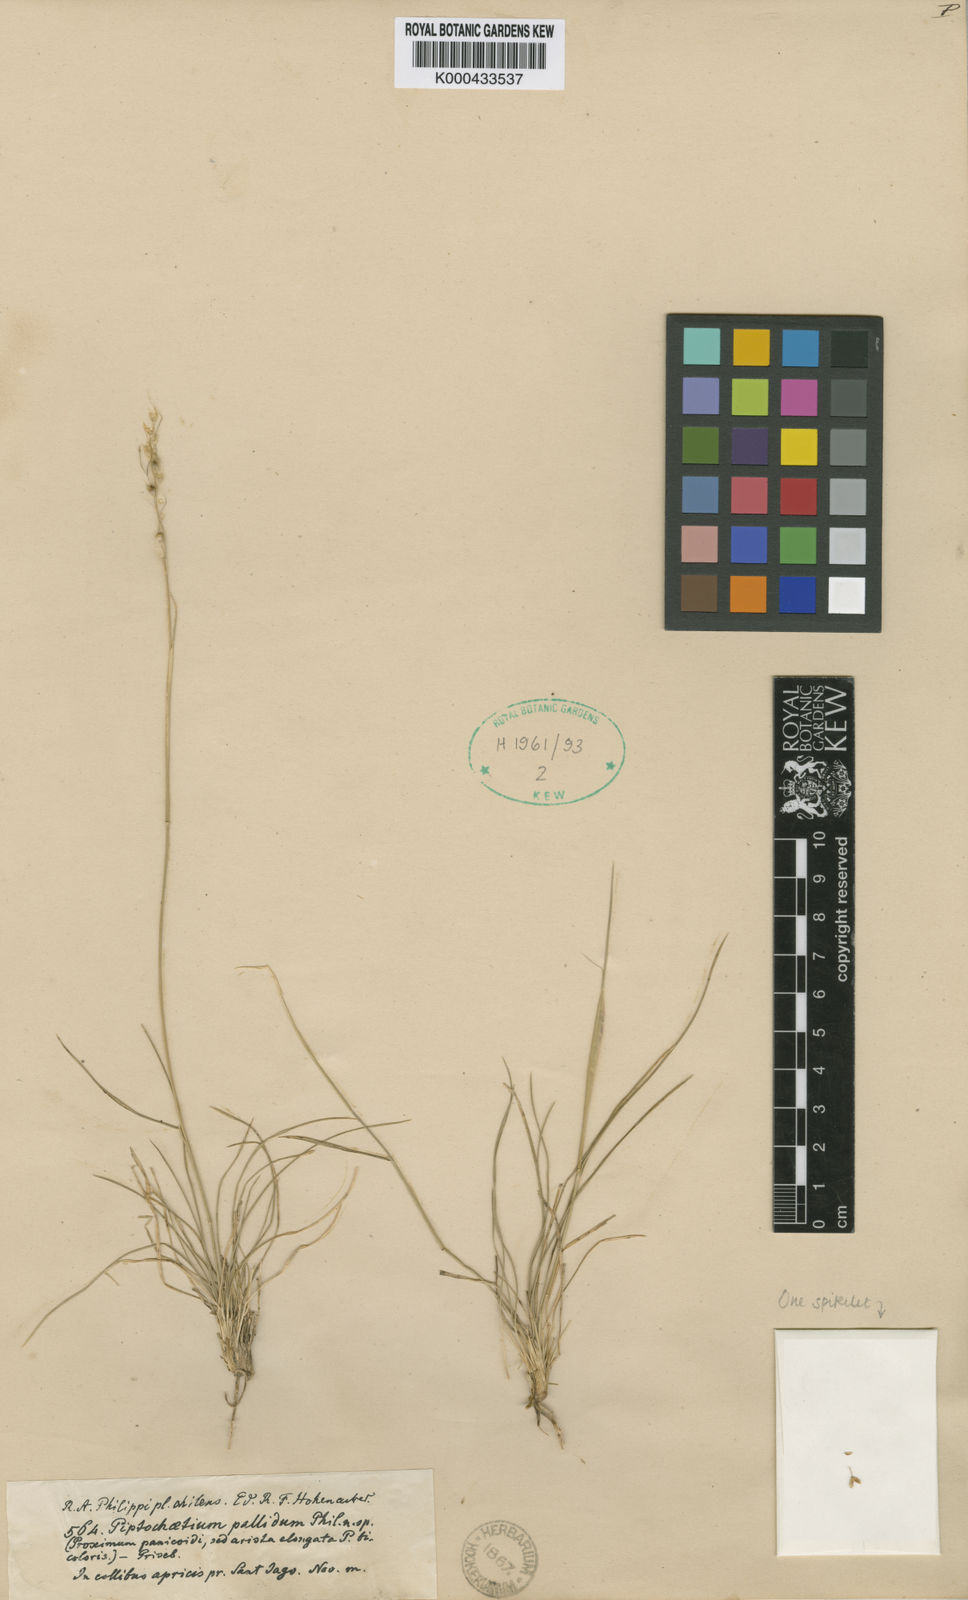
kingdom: Plantae
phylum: Tracheophyta
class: Liliopsida
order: Poales
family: Poaceae
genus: Piptochaetium
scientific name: Piptochaetium
